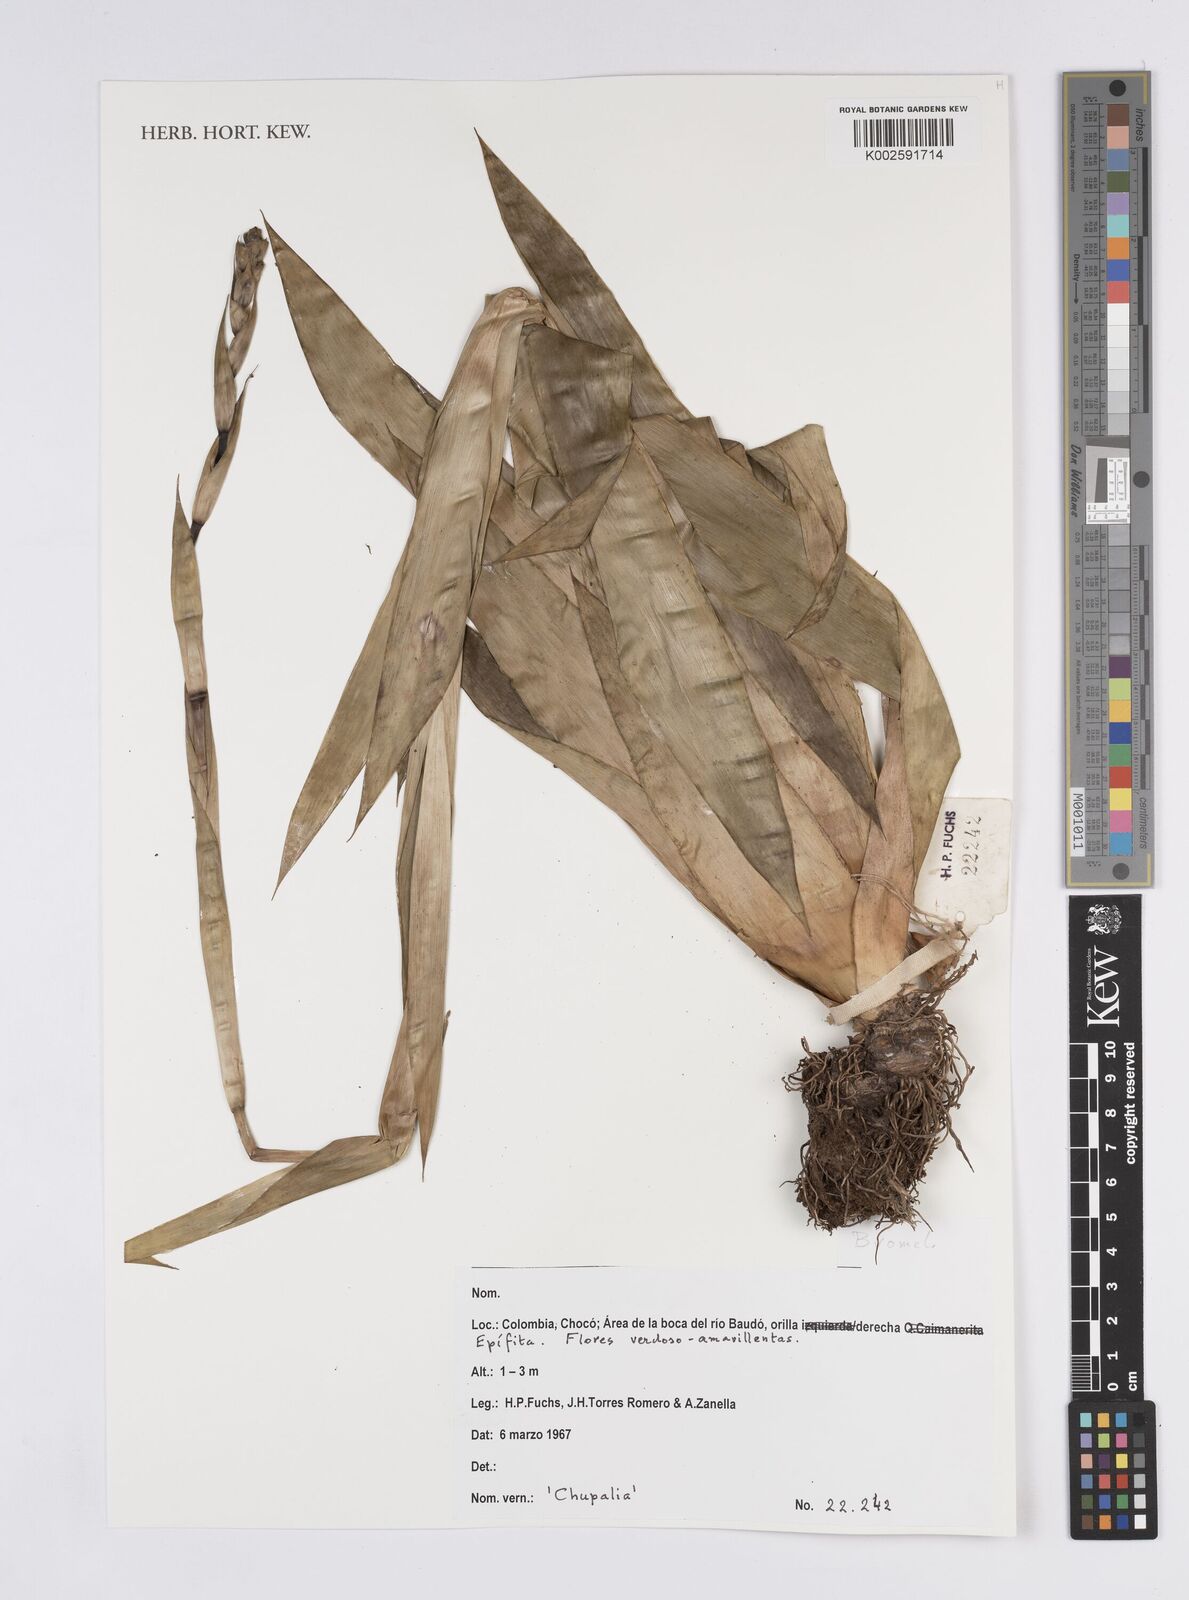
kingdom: Plantae
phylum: Tracheophyta
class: Liliopsida
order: Poales
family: Bromeliaceae
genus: Aechmea
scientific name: Aechmea
